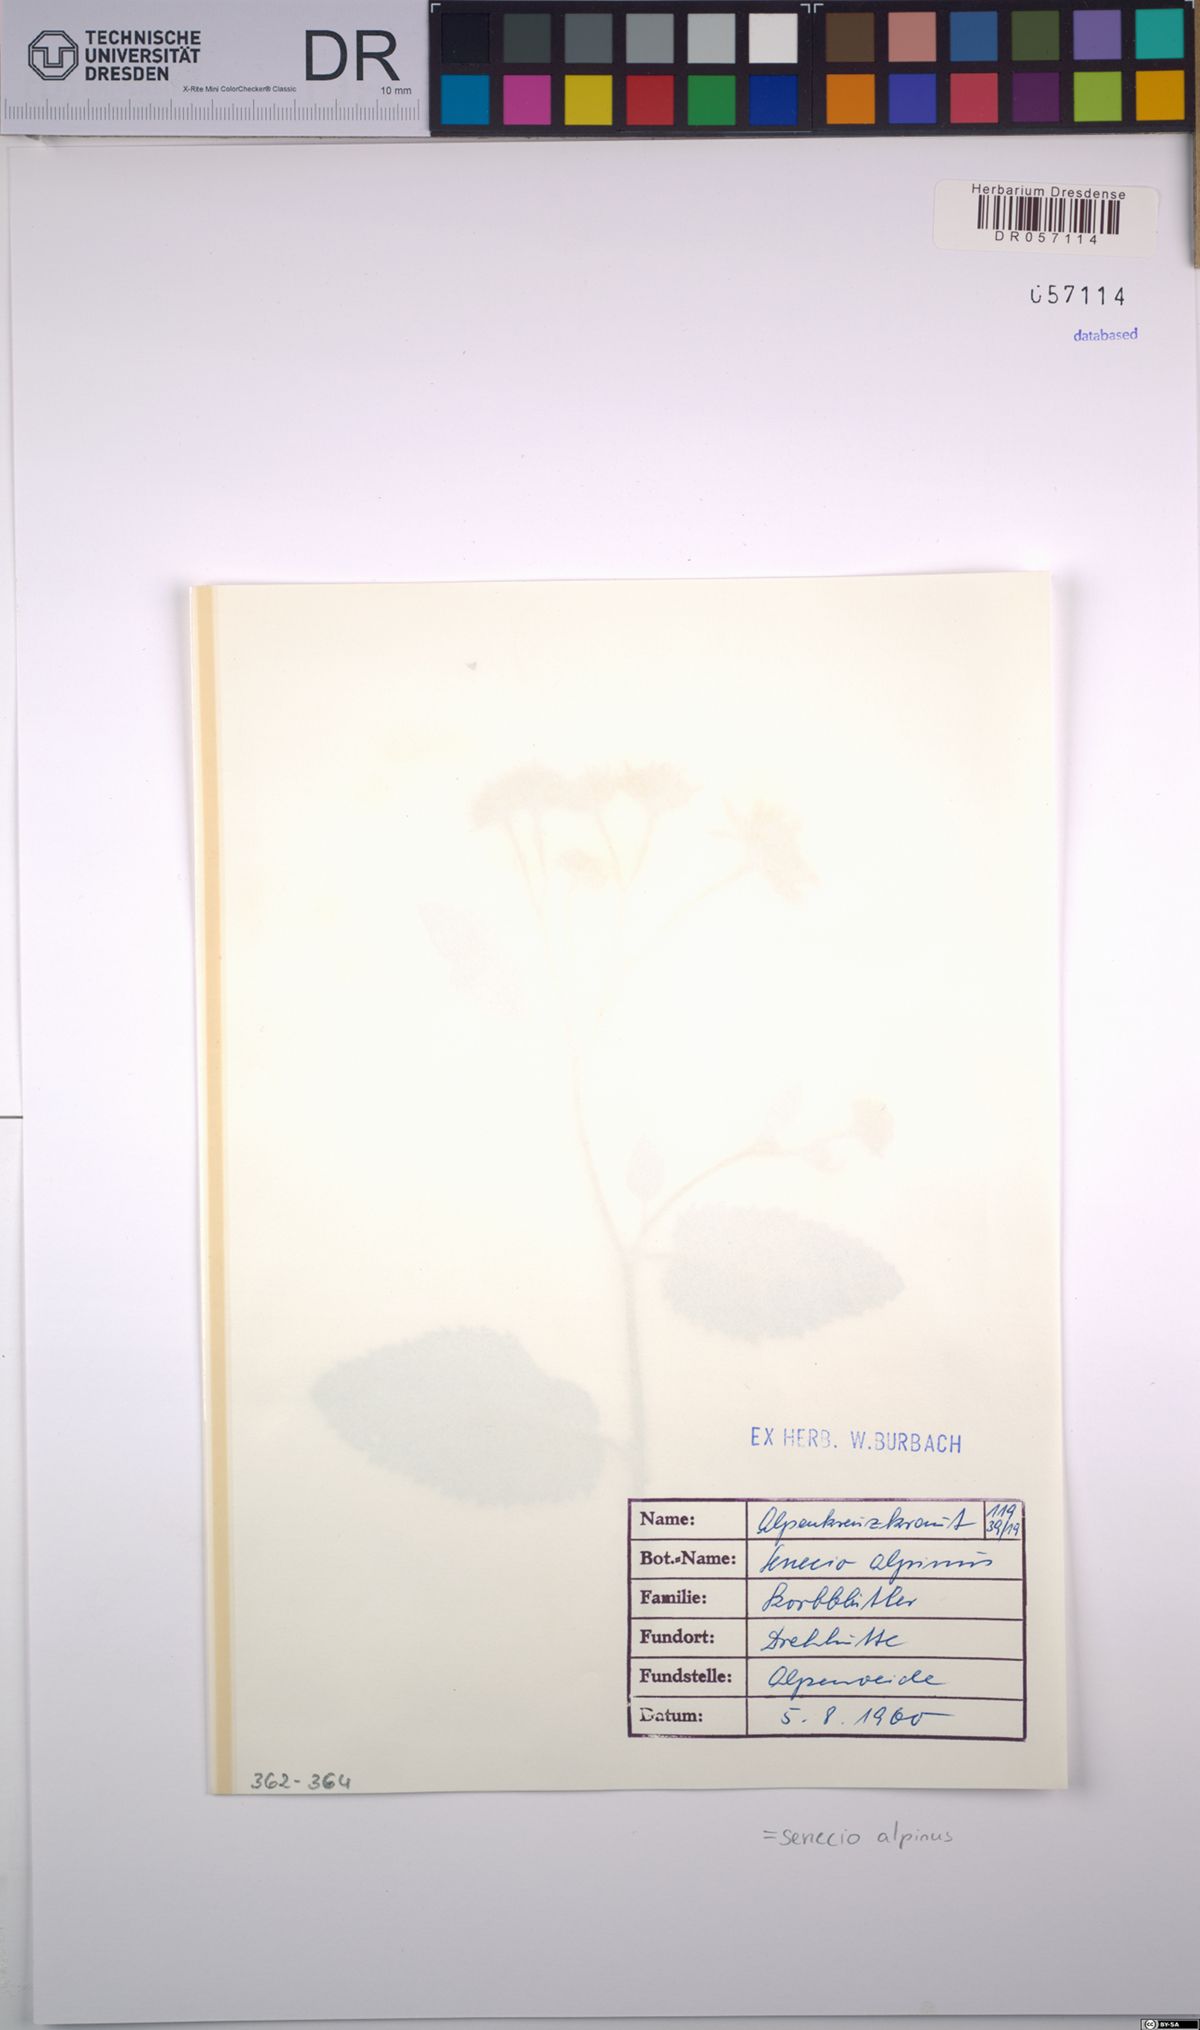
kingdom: Plantae
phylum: Tracheophyta
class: Magnoliopsida
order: Asterales
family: Asteraceae
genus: Jacobaea
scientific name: Jacobaea alpina
